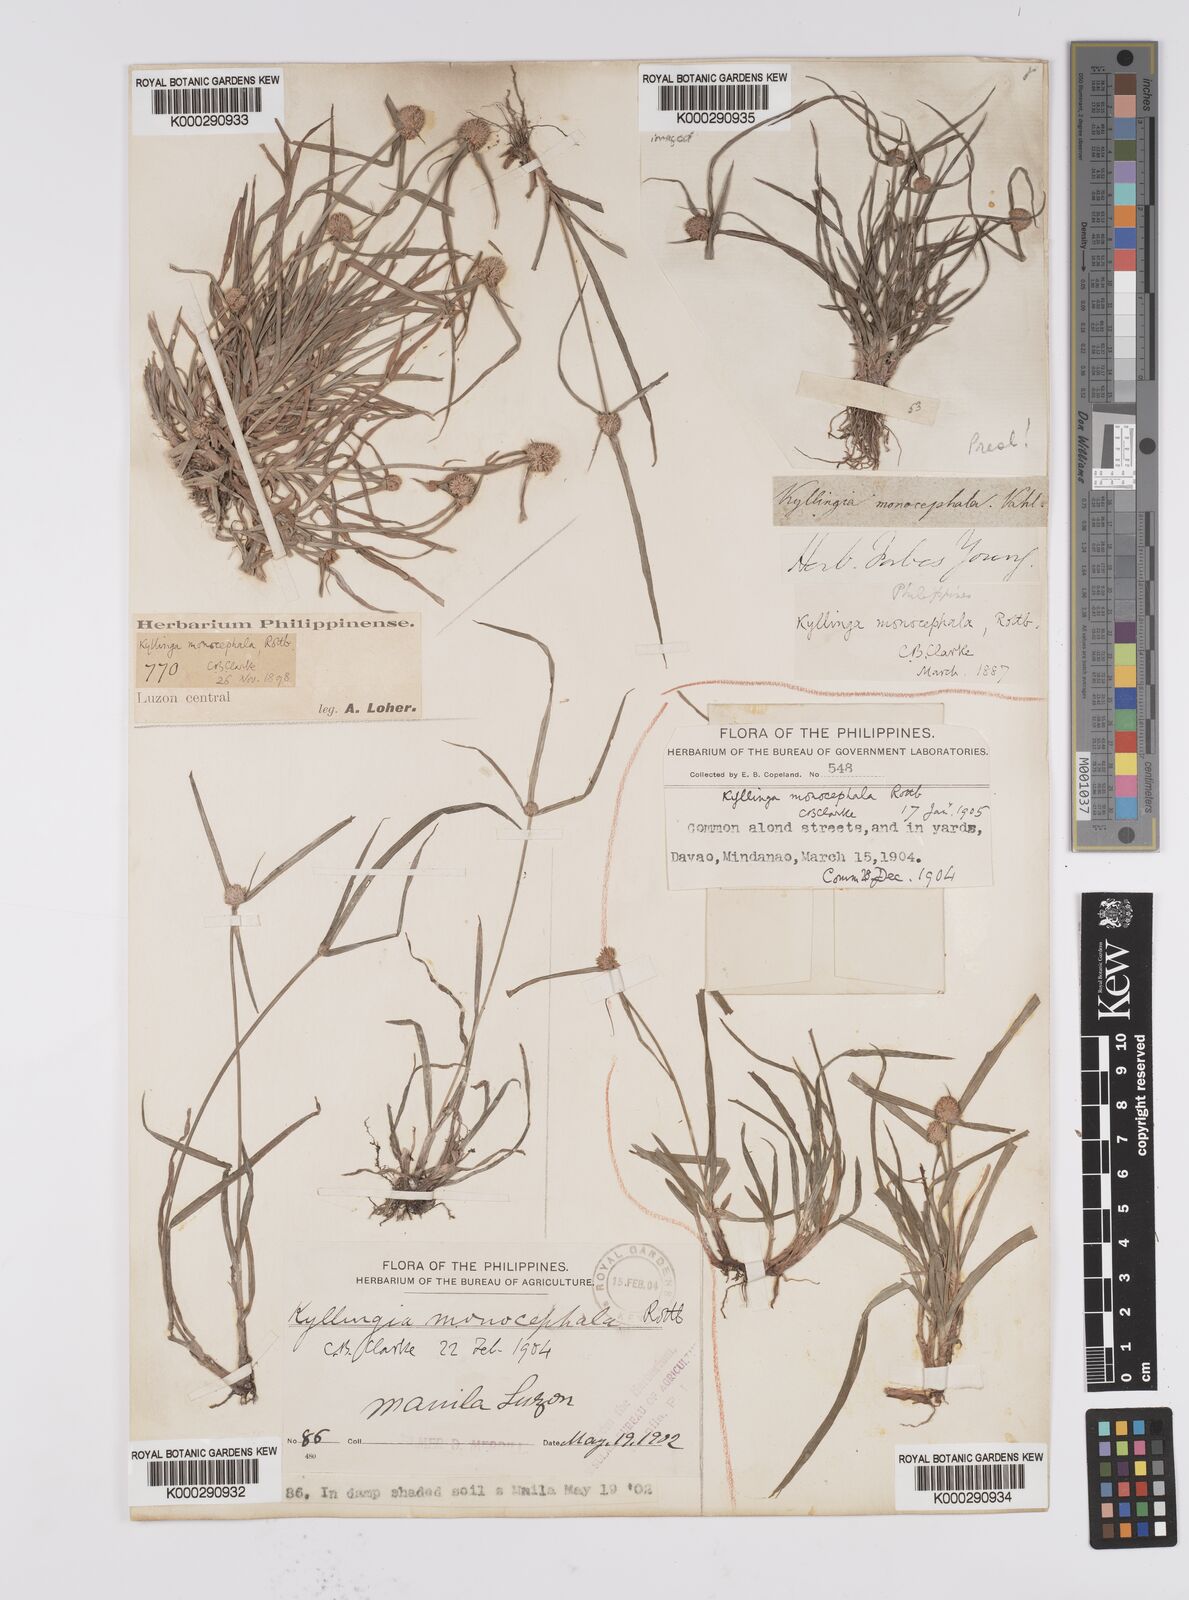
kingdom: Plantae
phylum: Tracheophyta
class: Liliopsida
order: Poales
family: Cyperaceae
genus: Cyperus
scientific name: Cyperus mindorensis
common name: Flatsedge
